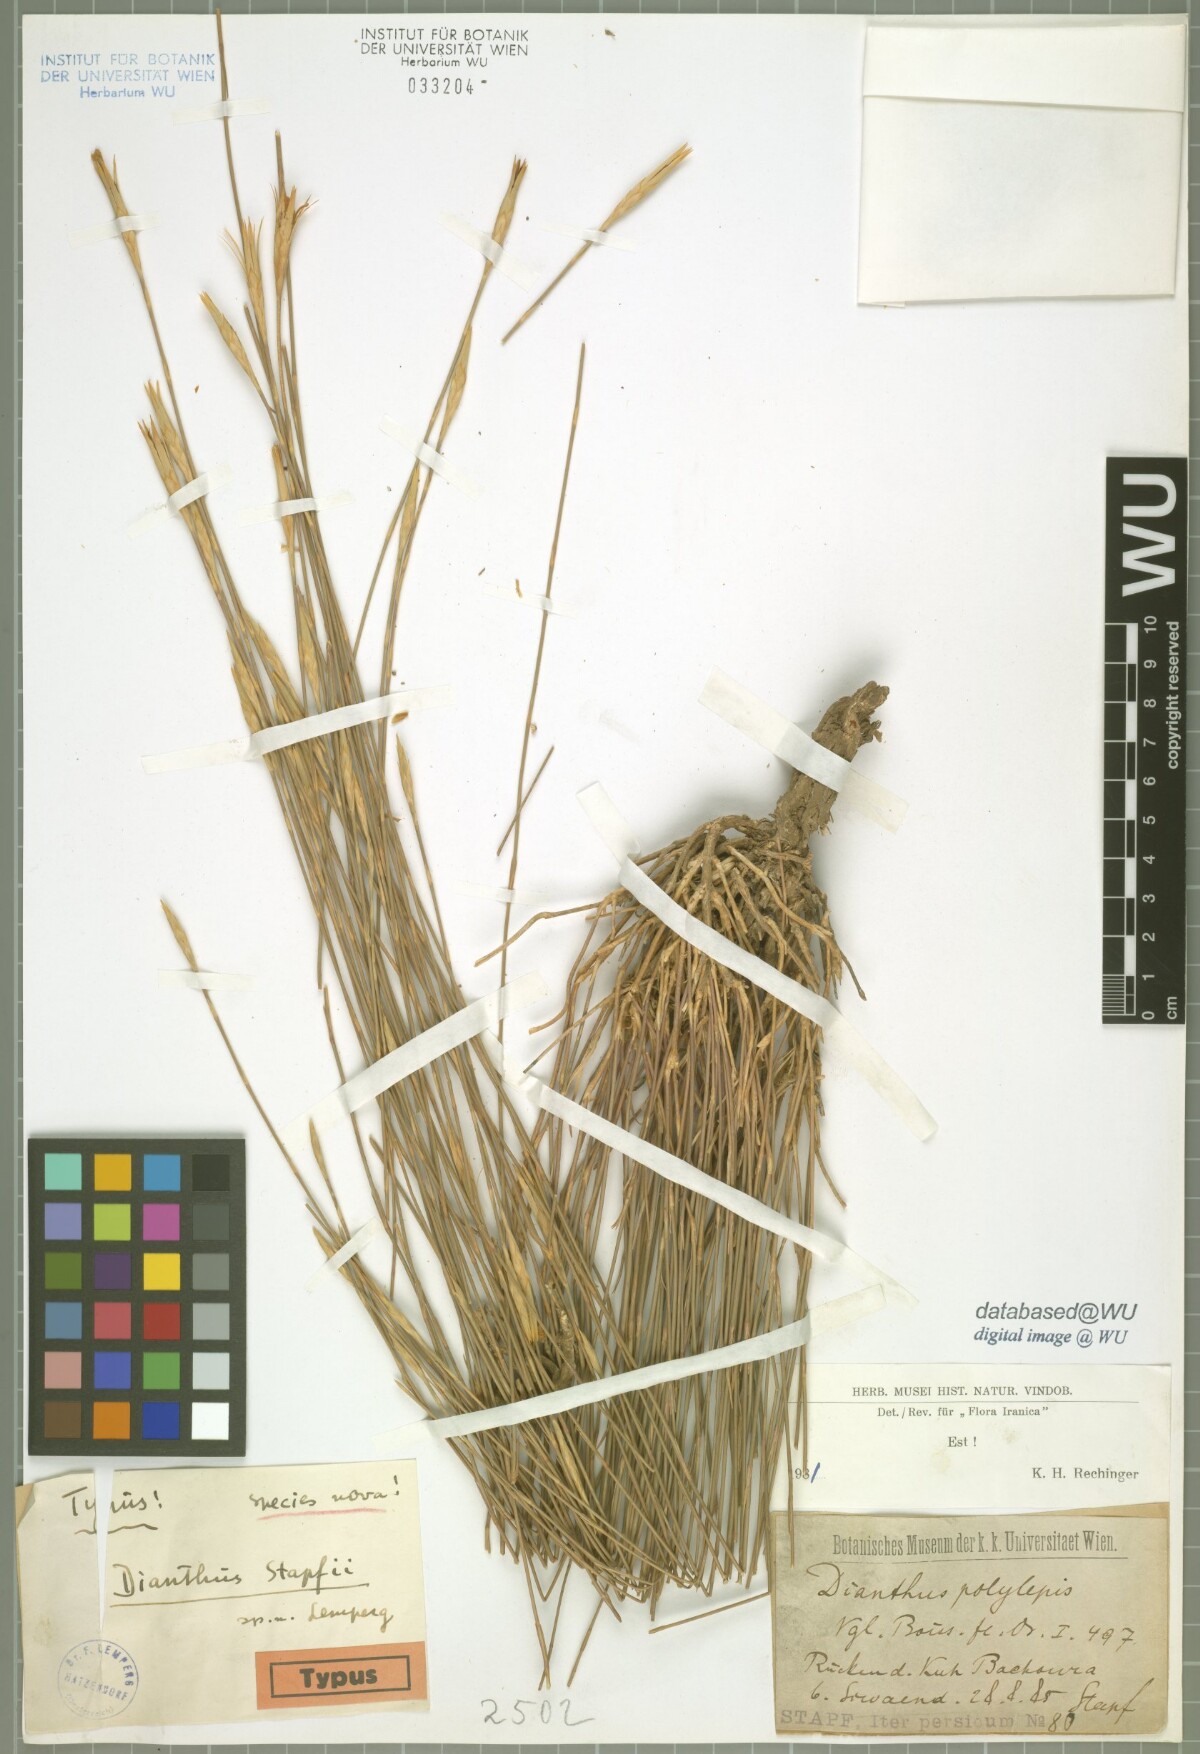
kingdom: Plantae
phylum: Tracheophyta
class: Magnoliopsida
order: Caryophyllales
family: Caryophyllaceae
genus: Dianthus
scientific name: Dianthus stapfii
